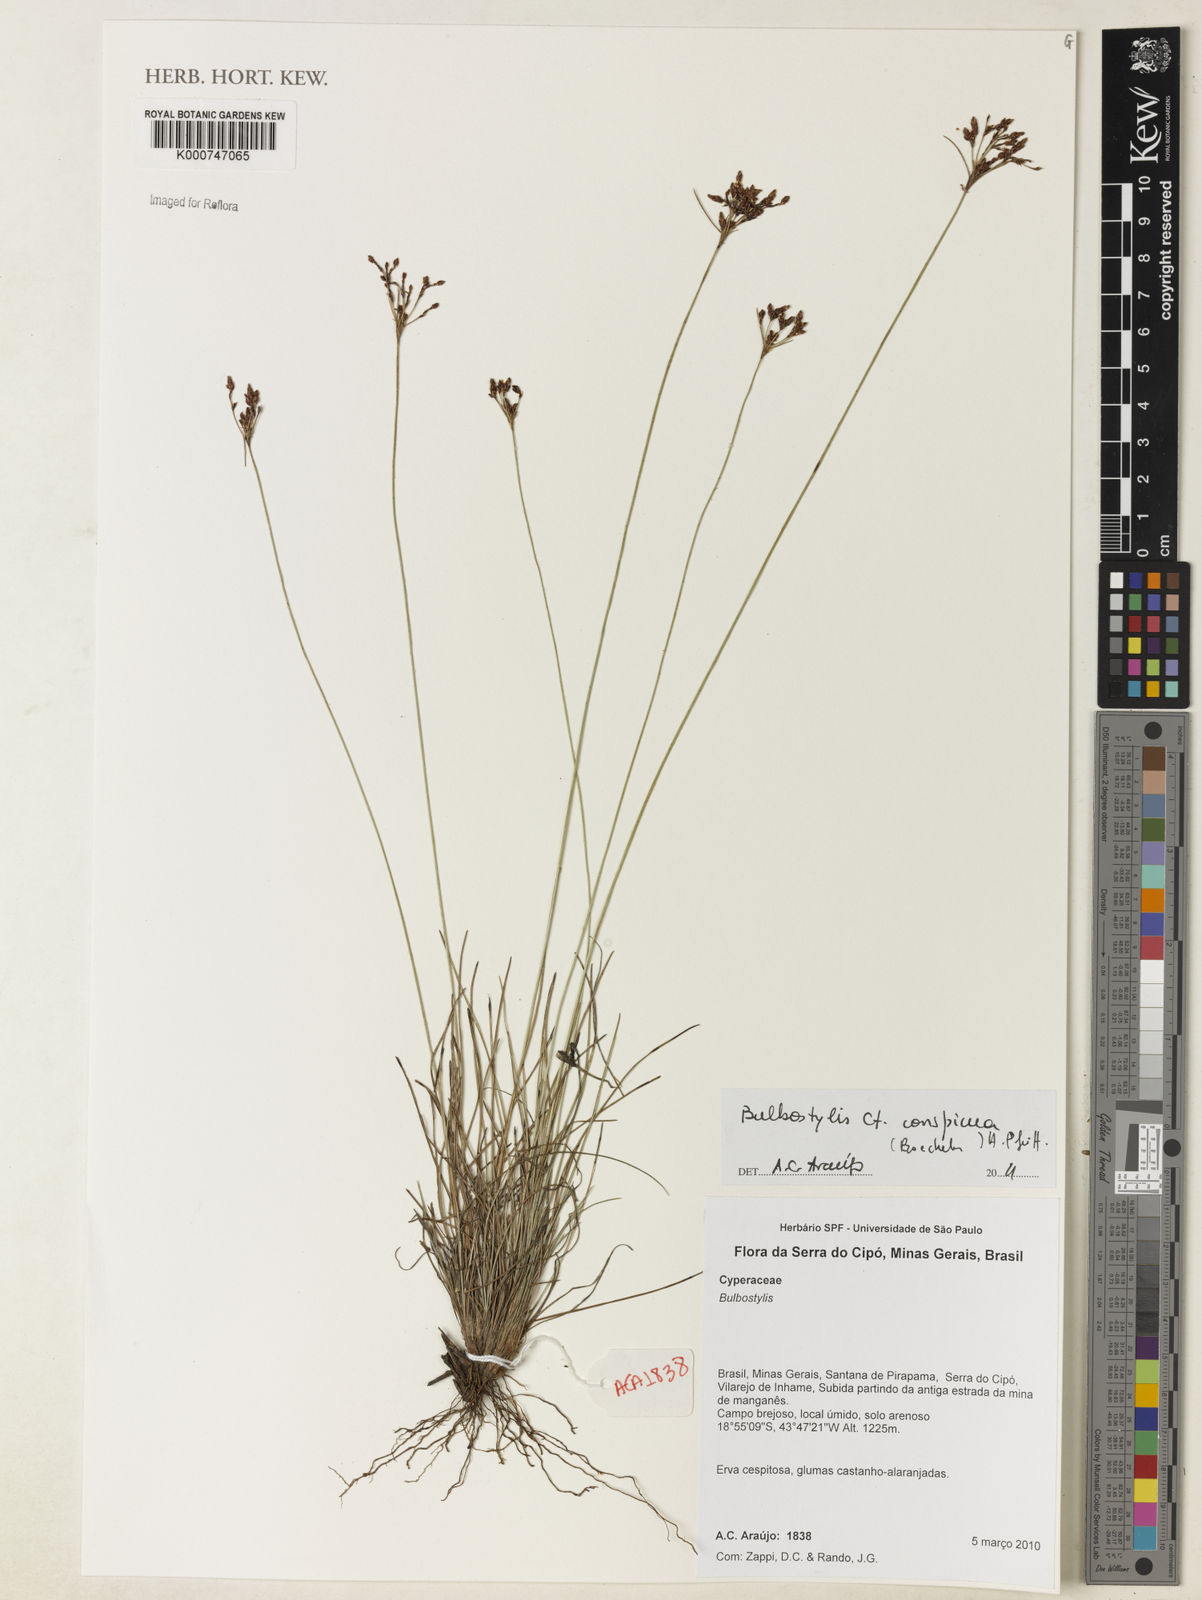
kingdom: Plantae
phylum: Tracheophyta
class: Liliopsida
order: Poales
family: Cyperaceae
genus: Bulbostylis
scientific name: Bulbostylis conspicua
